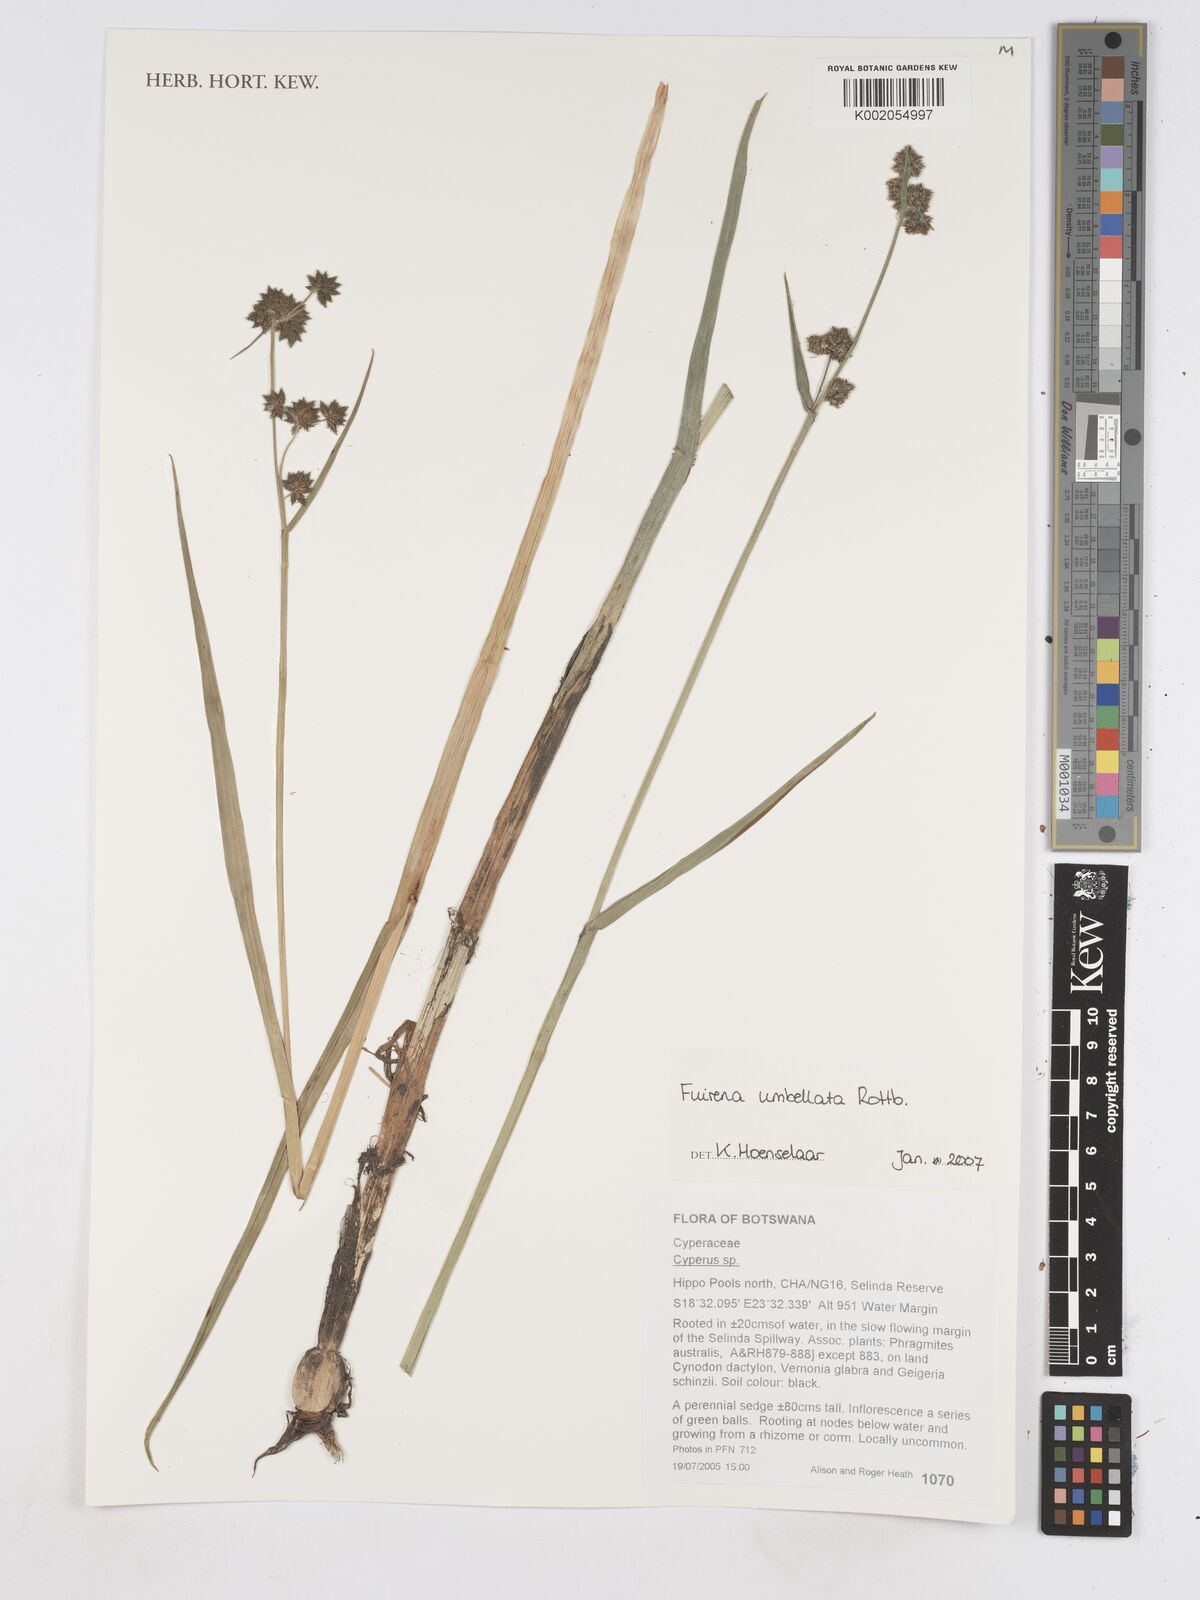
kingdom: Plantae
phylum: Tracheophyta
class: Liliopsida
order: Poales
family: Cyperaceae
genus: Fuirena
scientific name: Fuirena umbellata
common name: Yefen
